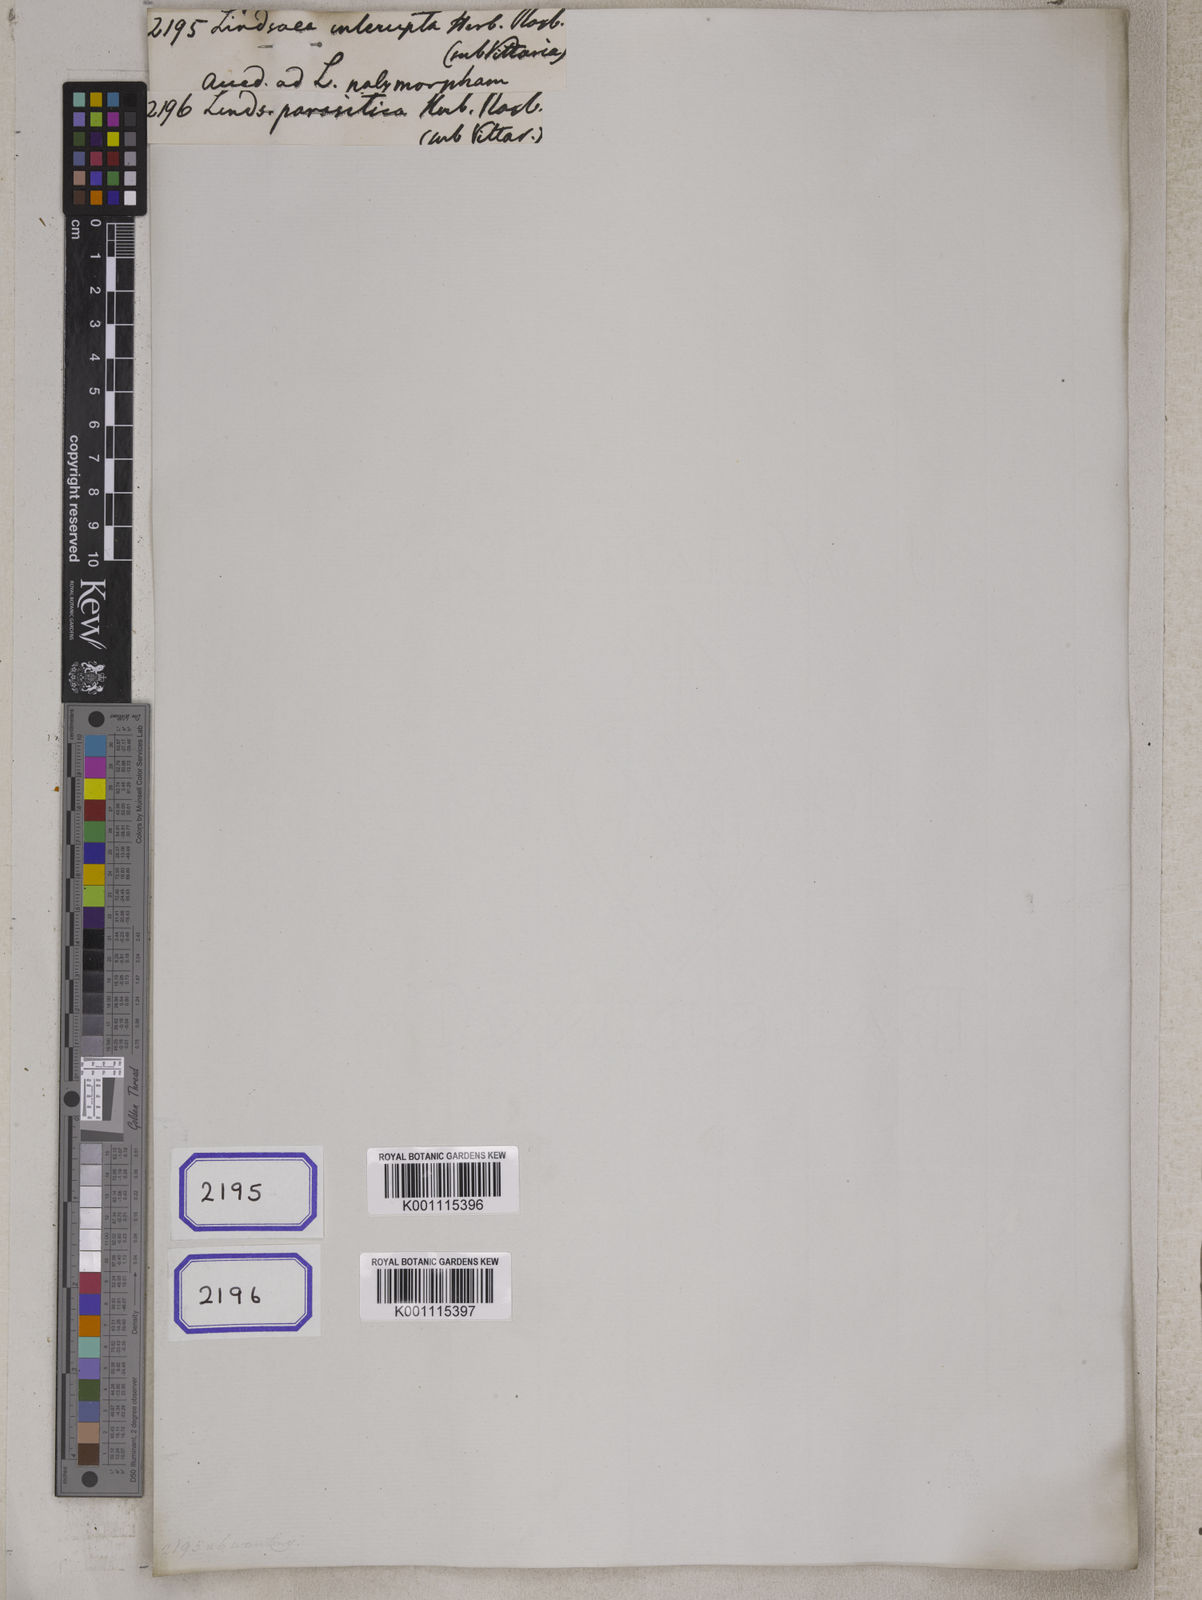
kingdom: Plantae
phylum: Tracheophyta
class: Polypodiopsida
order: Polypodiales
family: Lindsaeaceae
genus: Lindsaea
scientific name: Lindsaea interrupta
